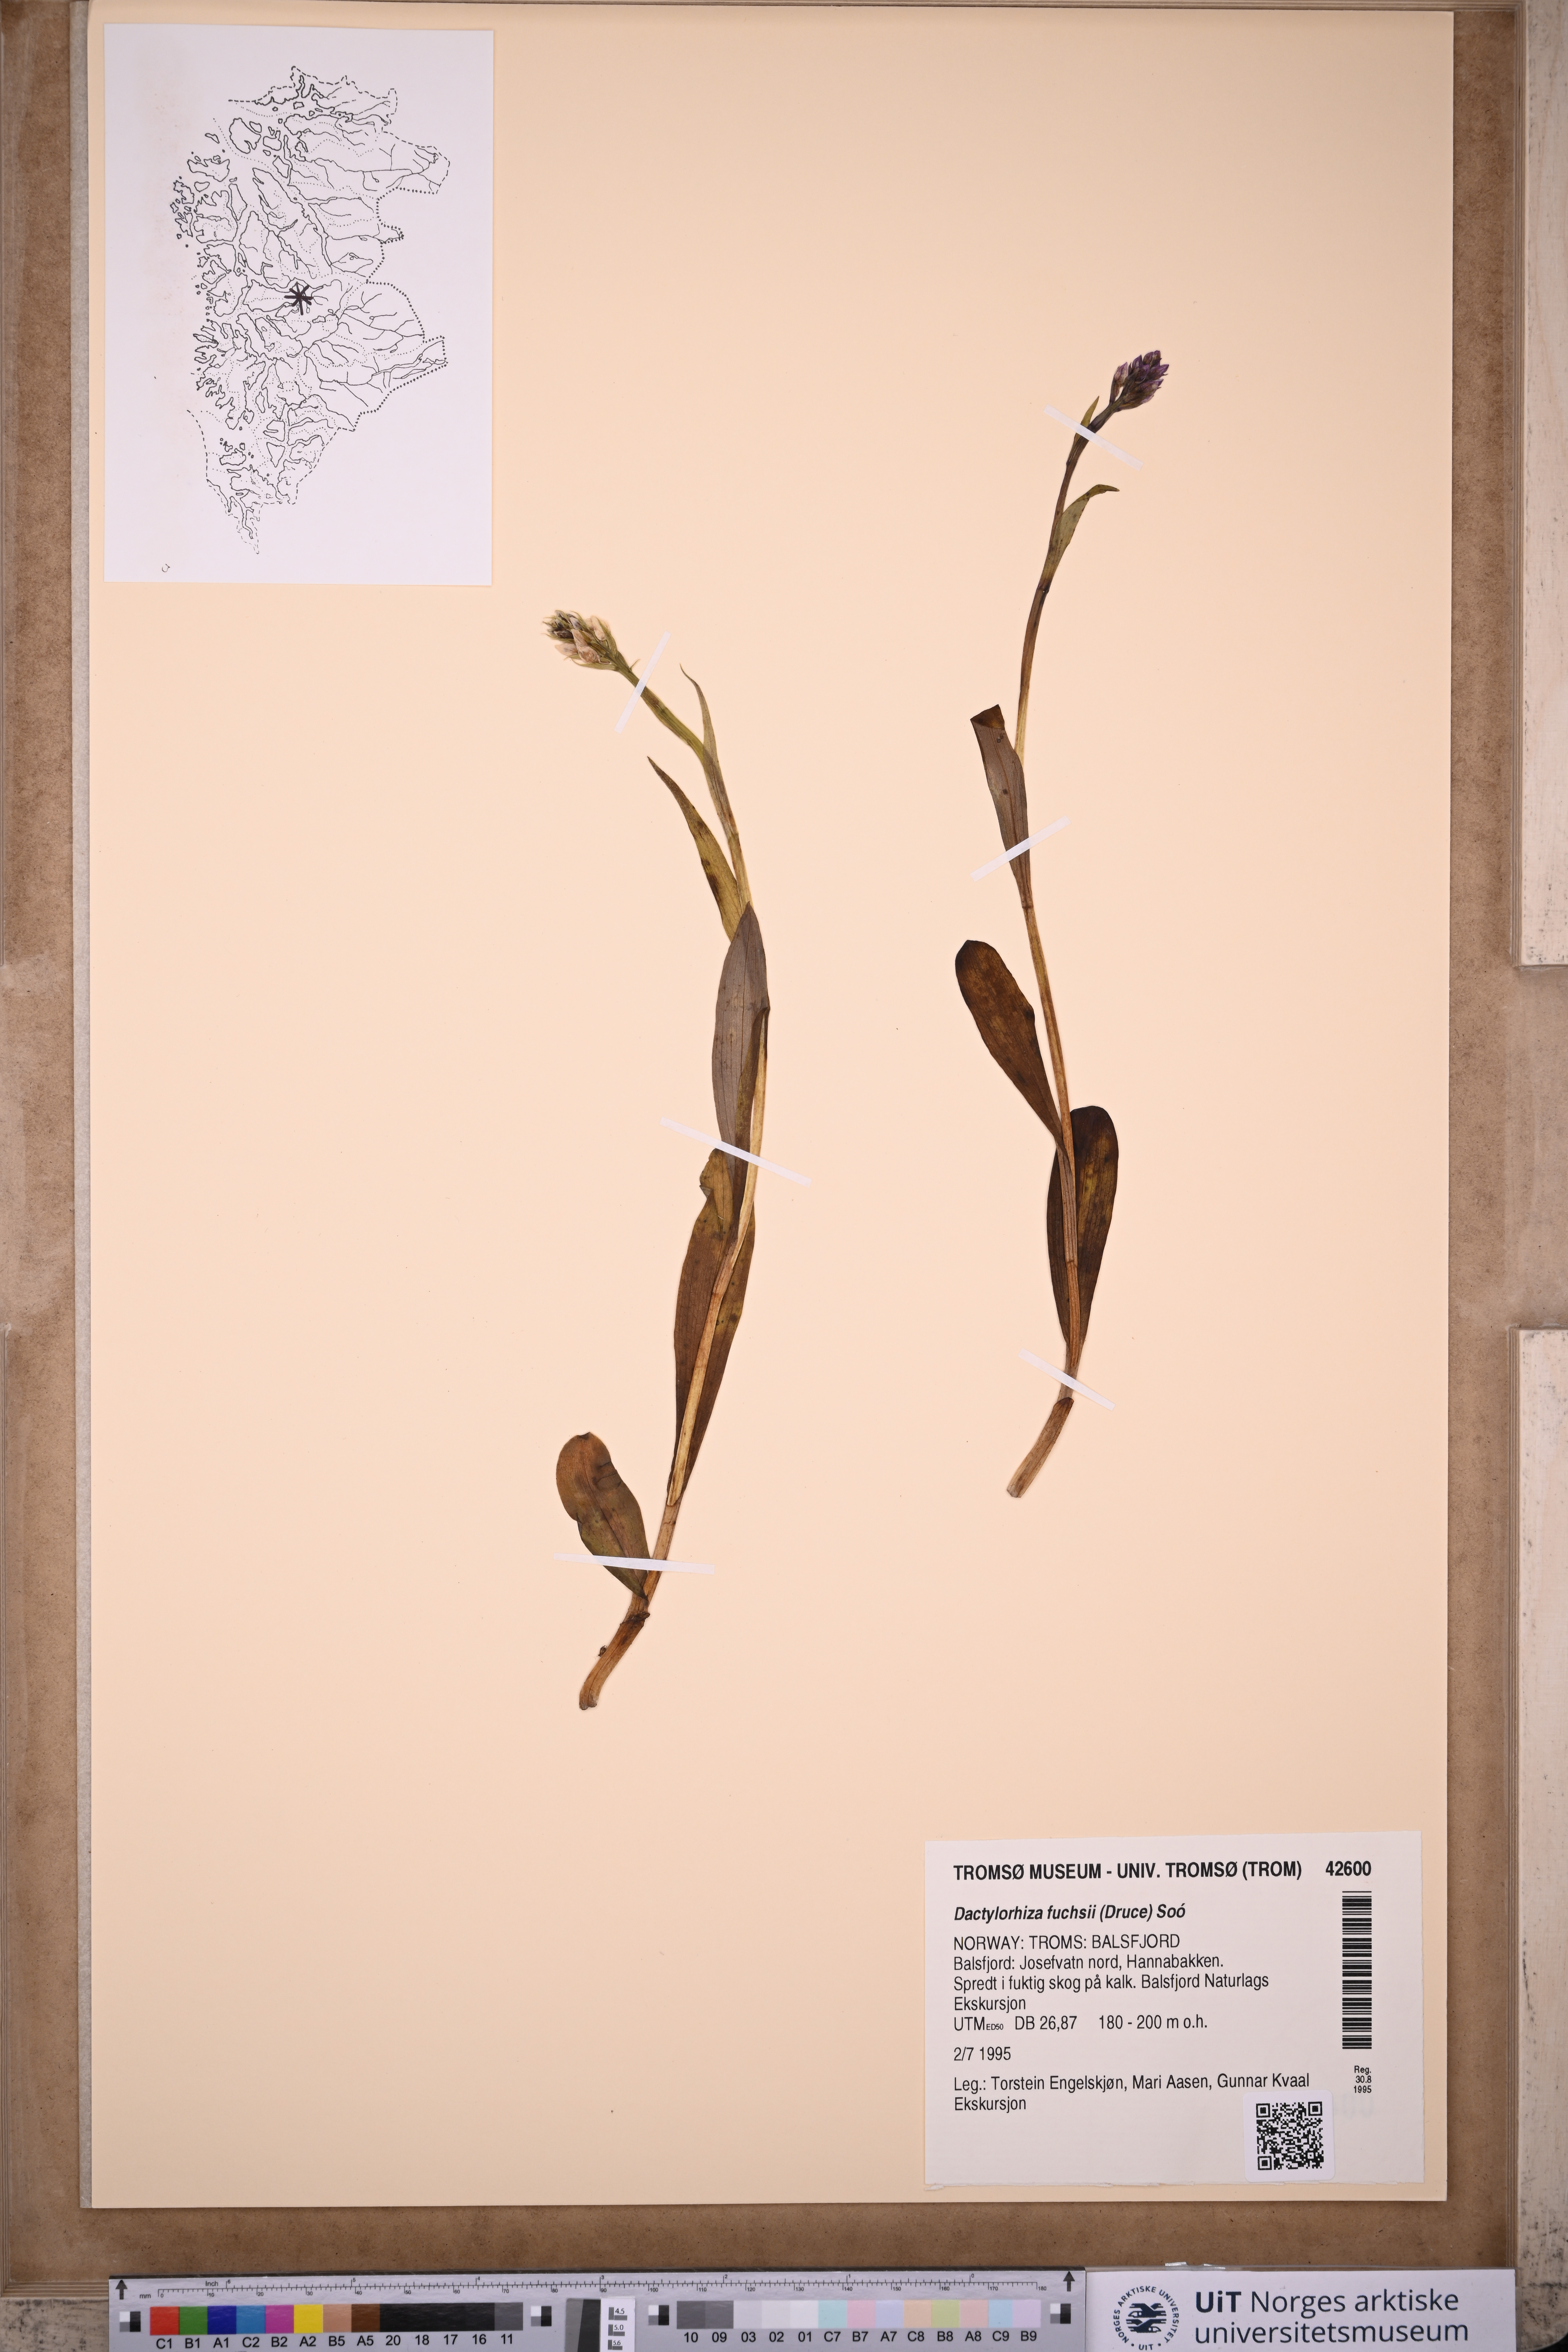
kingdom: Plantae
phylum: Tracheophyta
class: Liliopsida
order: Asparagales
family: Orchidaceae
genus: Dactylorhiza
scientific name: Dactylorhiza maculata
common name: Heath spotted-orchid
